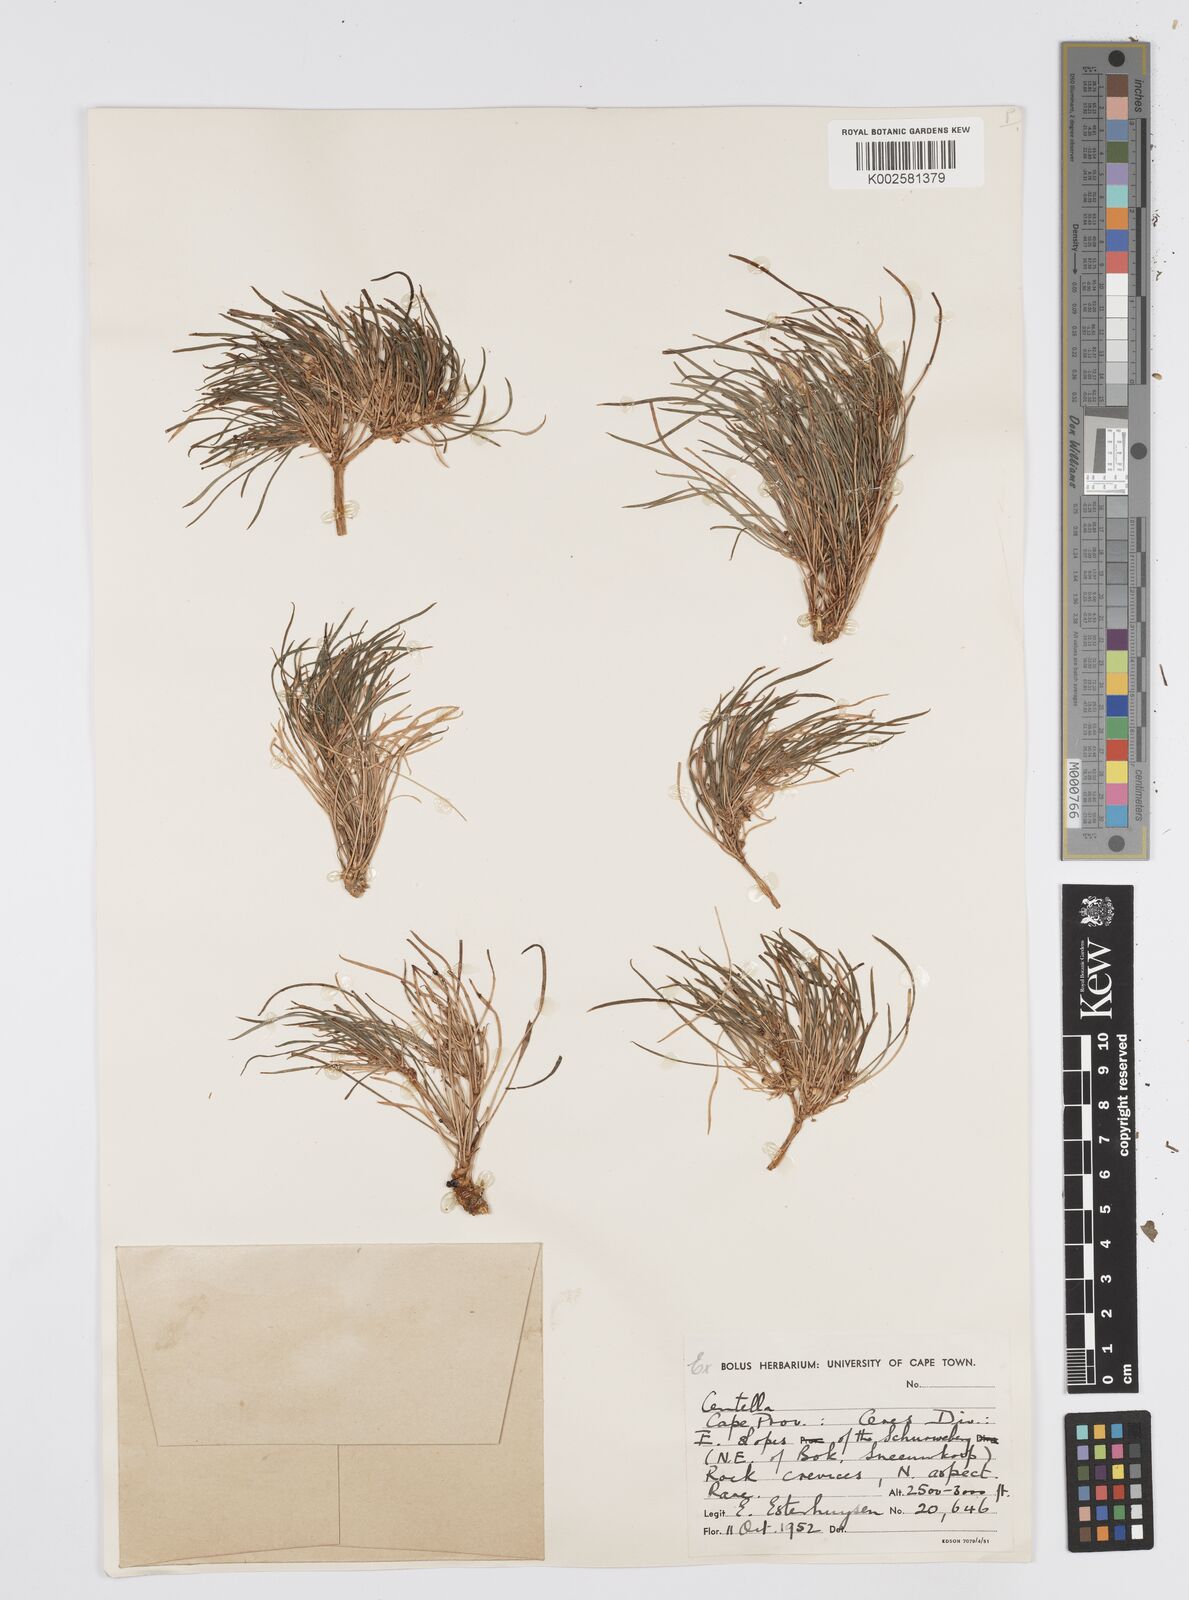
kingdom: Plantae
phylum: Tracheophyta
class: Magnoliopsida
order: Apiales
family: Apiaceae
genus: Centella
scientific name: Centella
